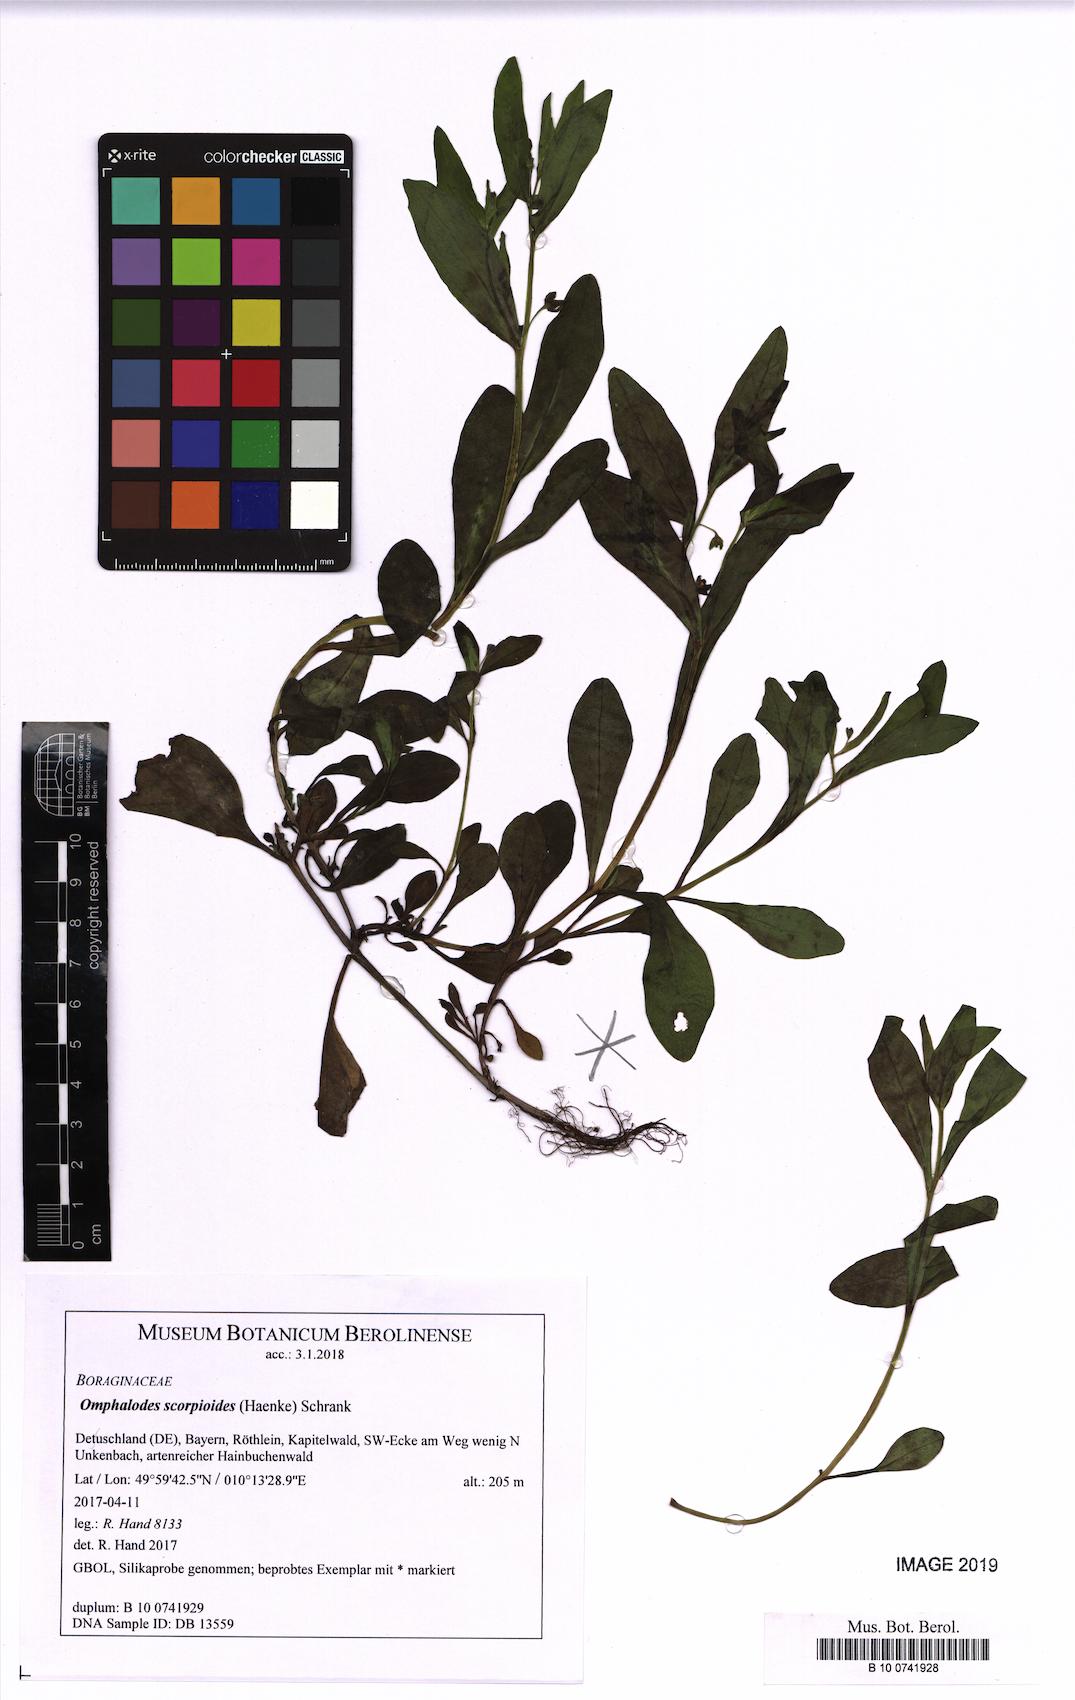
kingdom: Plantae
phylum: Tracheophyta
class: Magnoliopsida
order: Boraginales
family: Boraginaceae
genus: Memoremea
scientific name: Memoremea scorpioides
